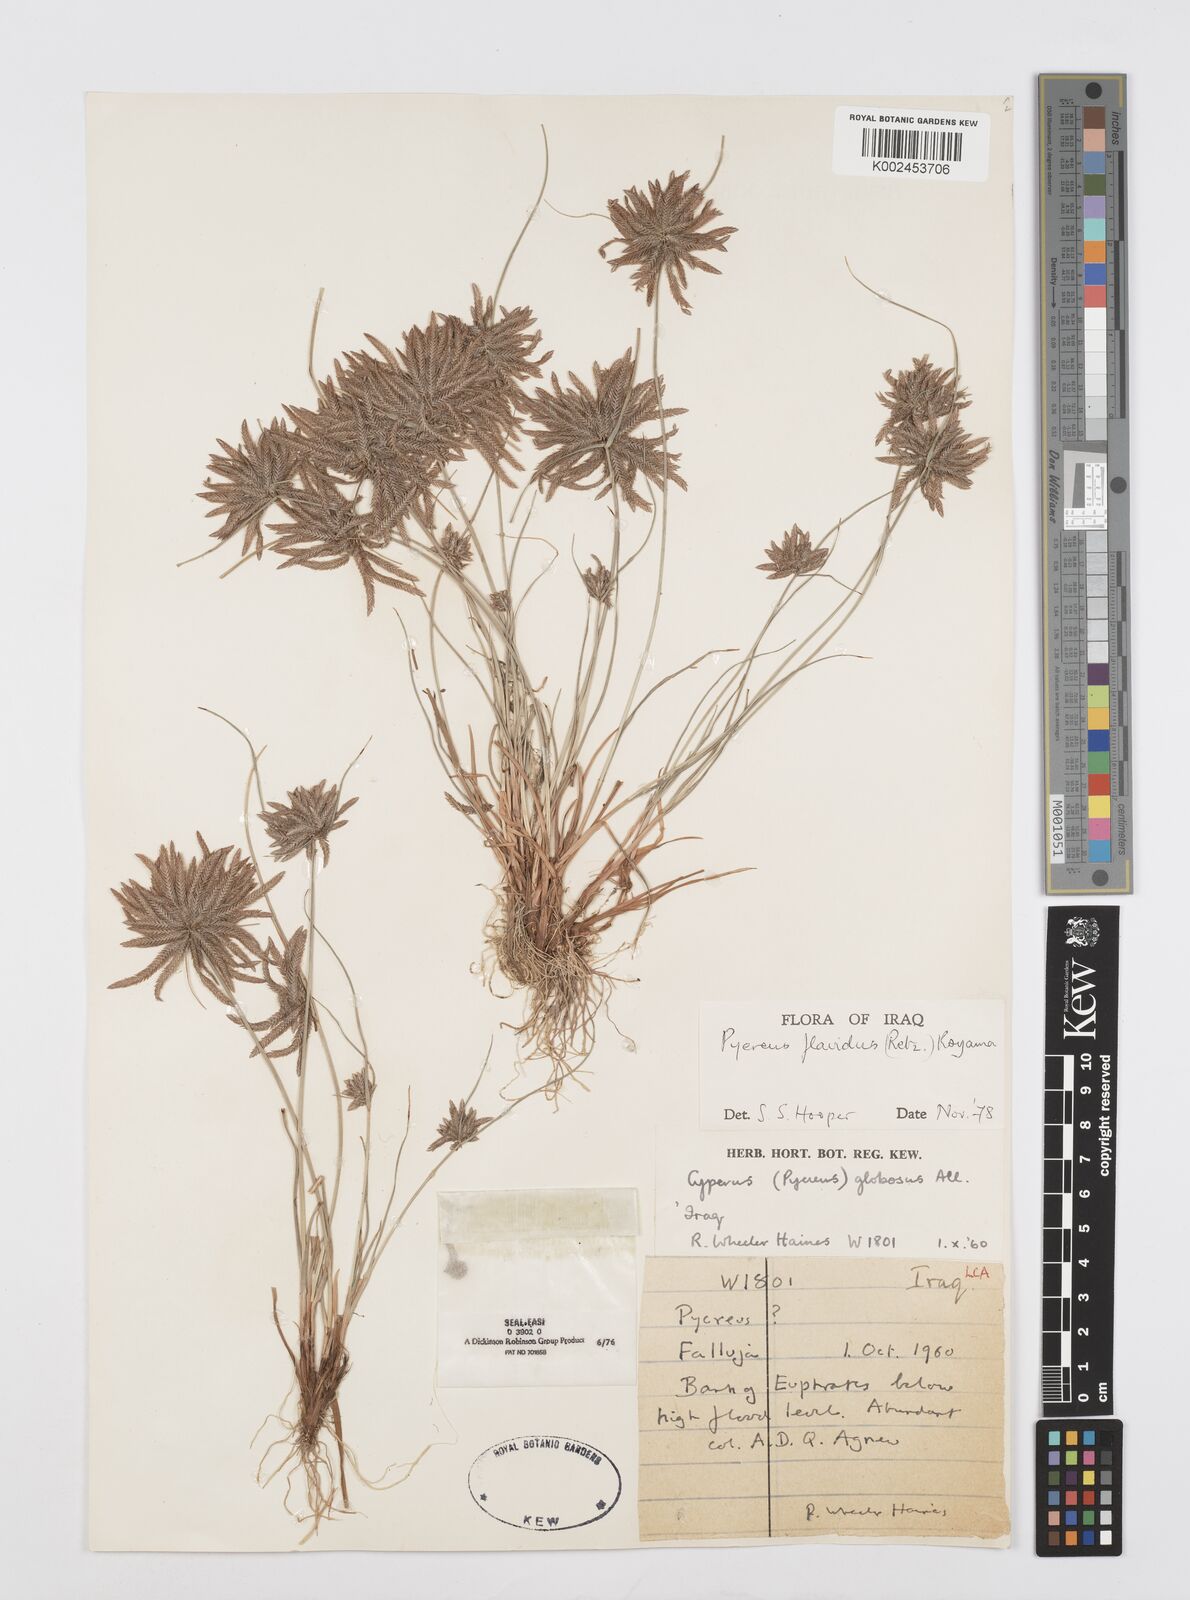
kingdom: Plantae
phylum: Tracheophyta
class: Liliopsida
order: Poales
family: Cyperaceae
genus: Cyperus
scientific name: Cyperus flavidus
